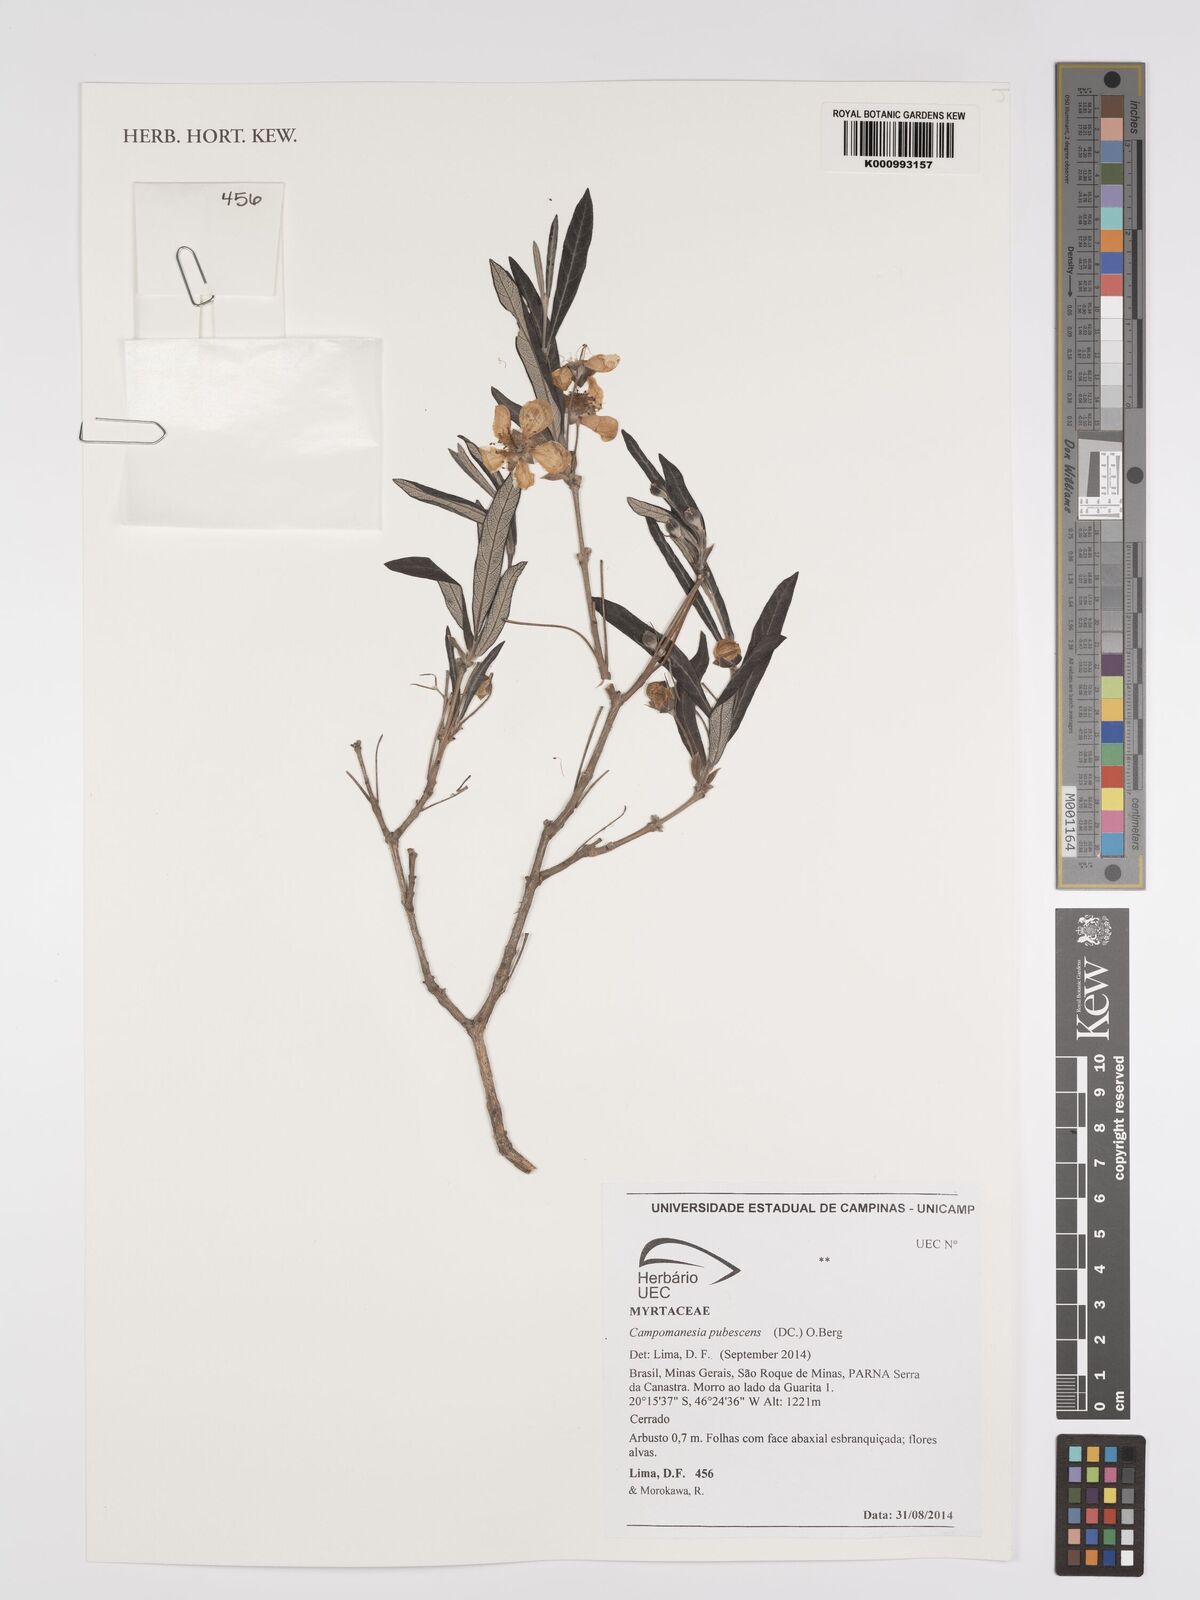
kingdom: Plantae
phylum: Tracheophyta
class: Magnoliopsida
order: Myrtales
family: Myrtaceae
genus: Campomanesia
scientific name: Campomanesia pubescens
